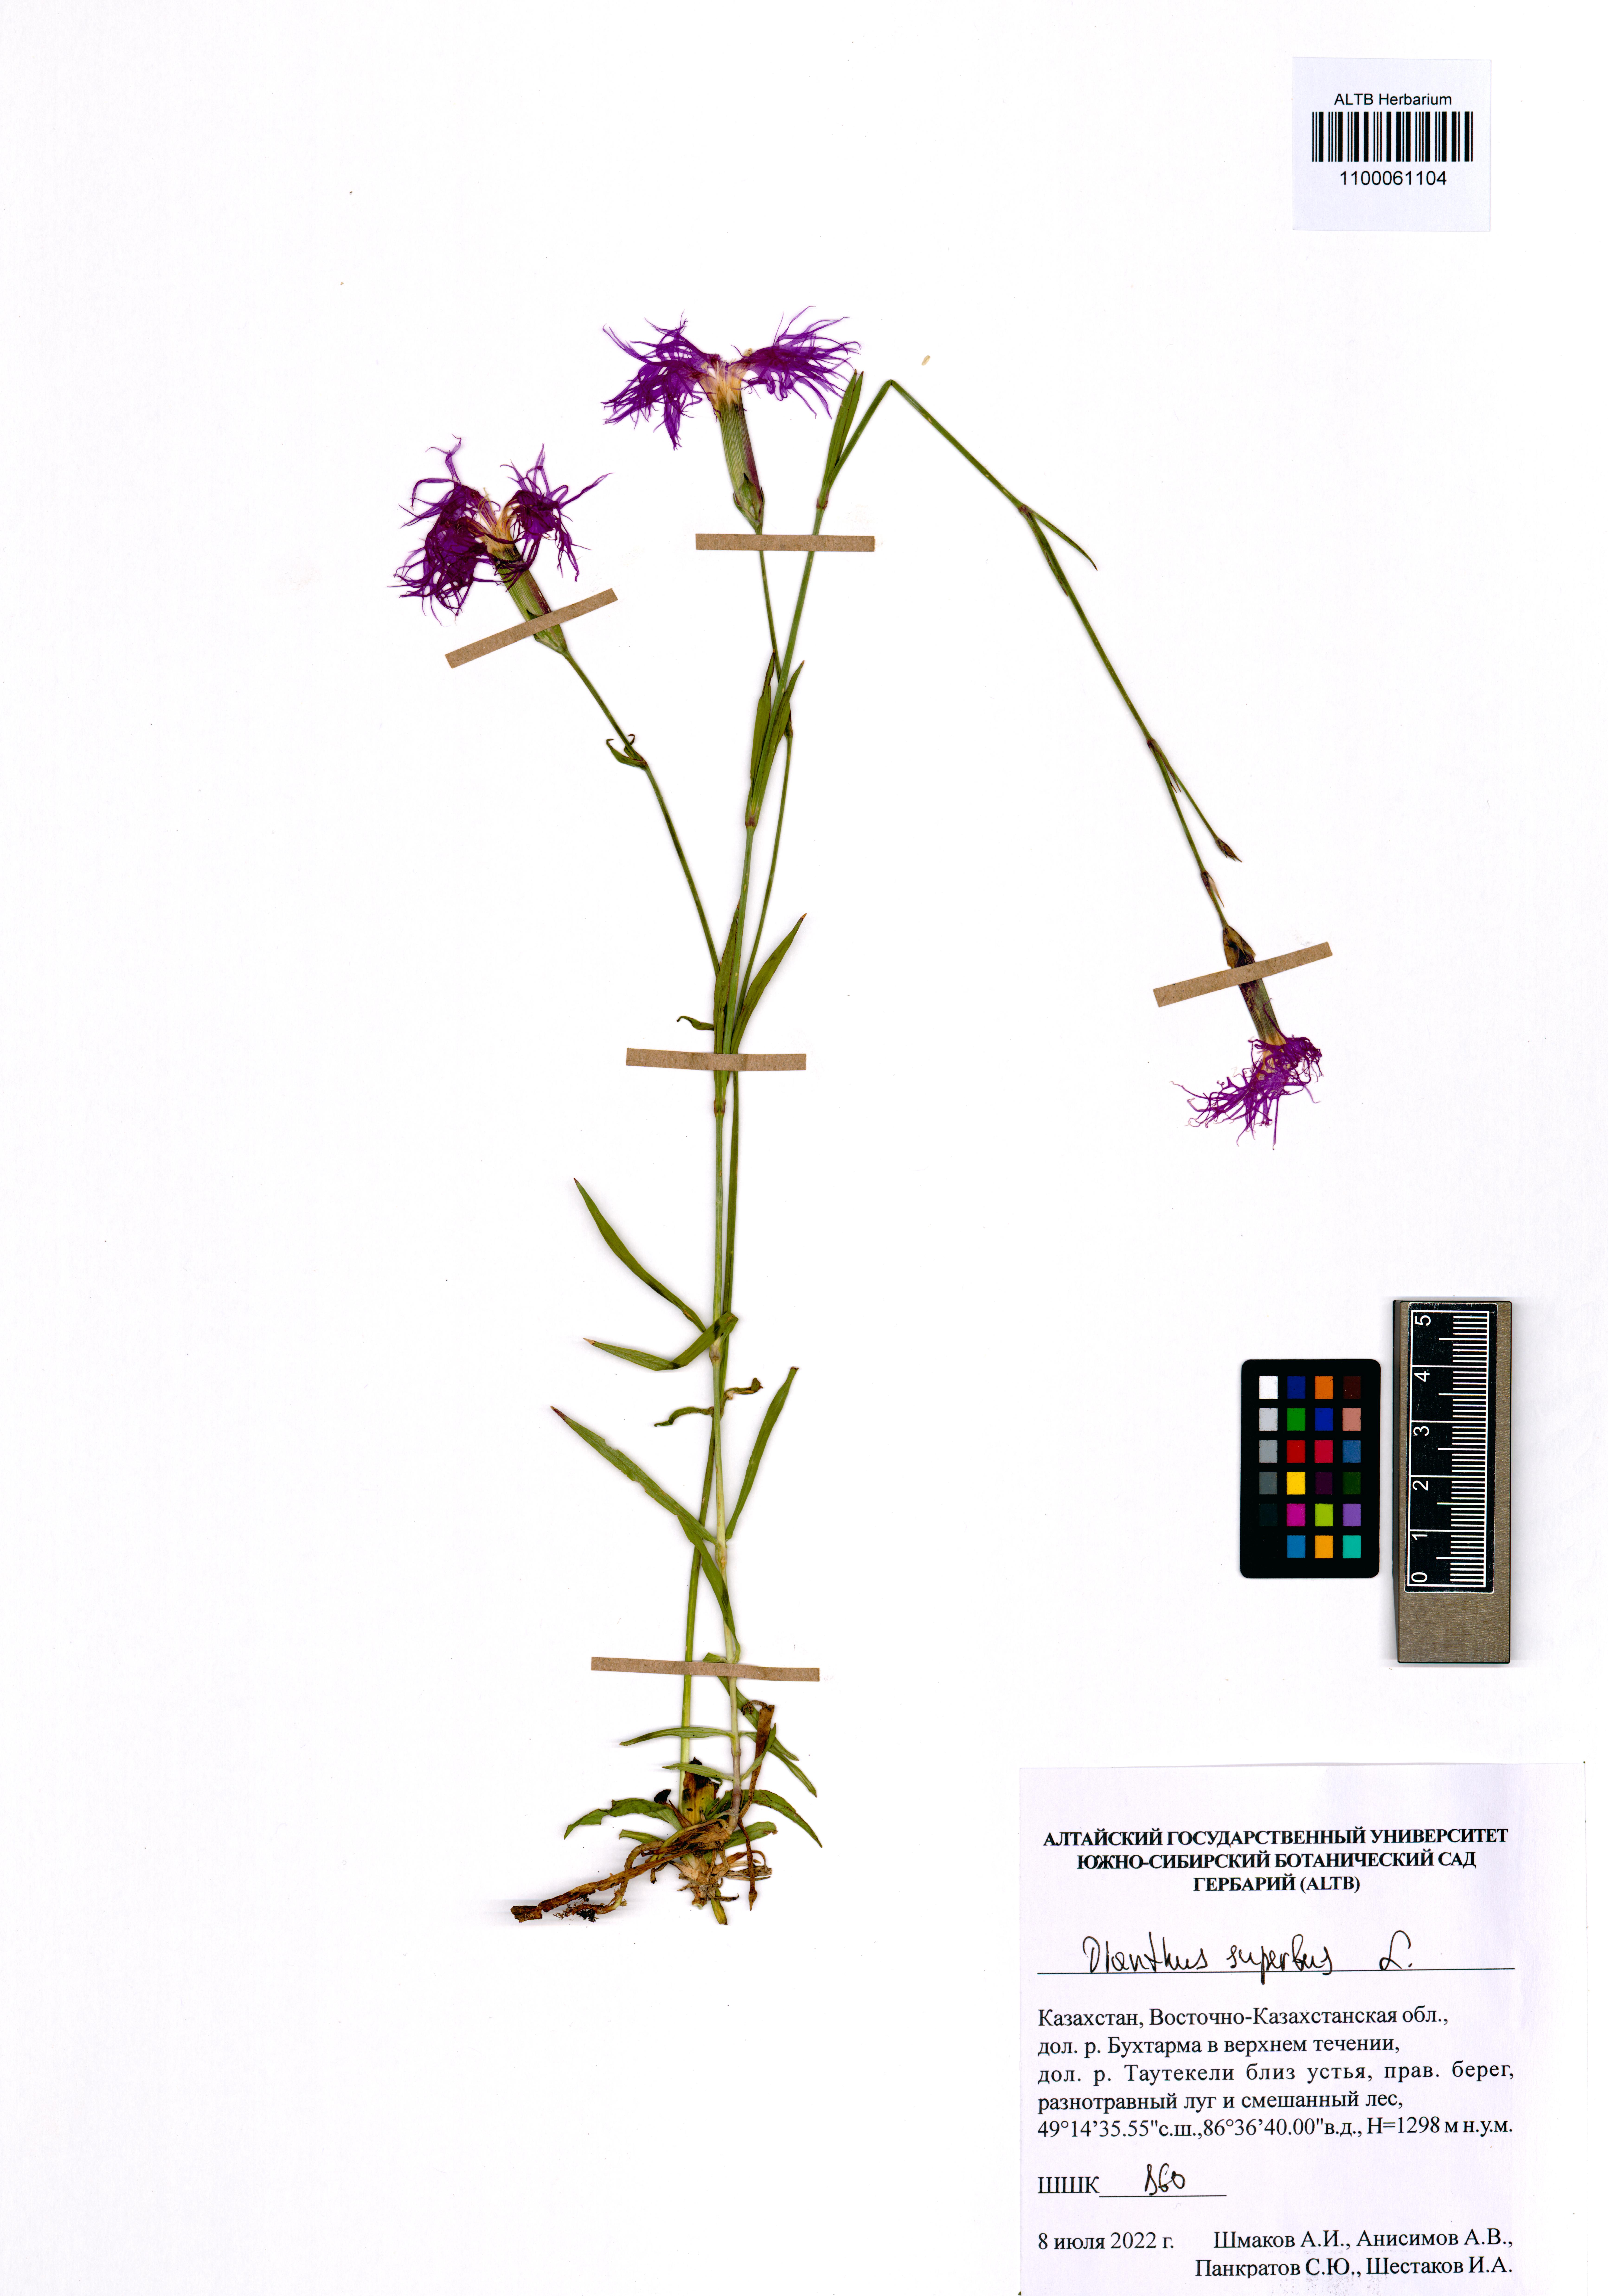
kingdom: Plantae
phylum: Tracheophyta
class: Magnoliopsida
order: Caryophyllales
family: Caryophyllaceae
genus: Dianthus
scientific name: Dianthus superbus
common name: Fringed pink
